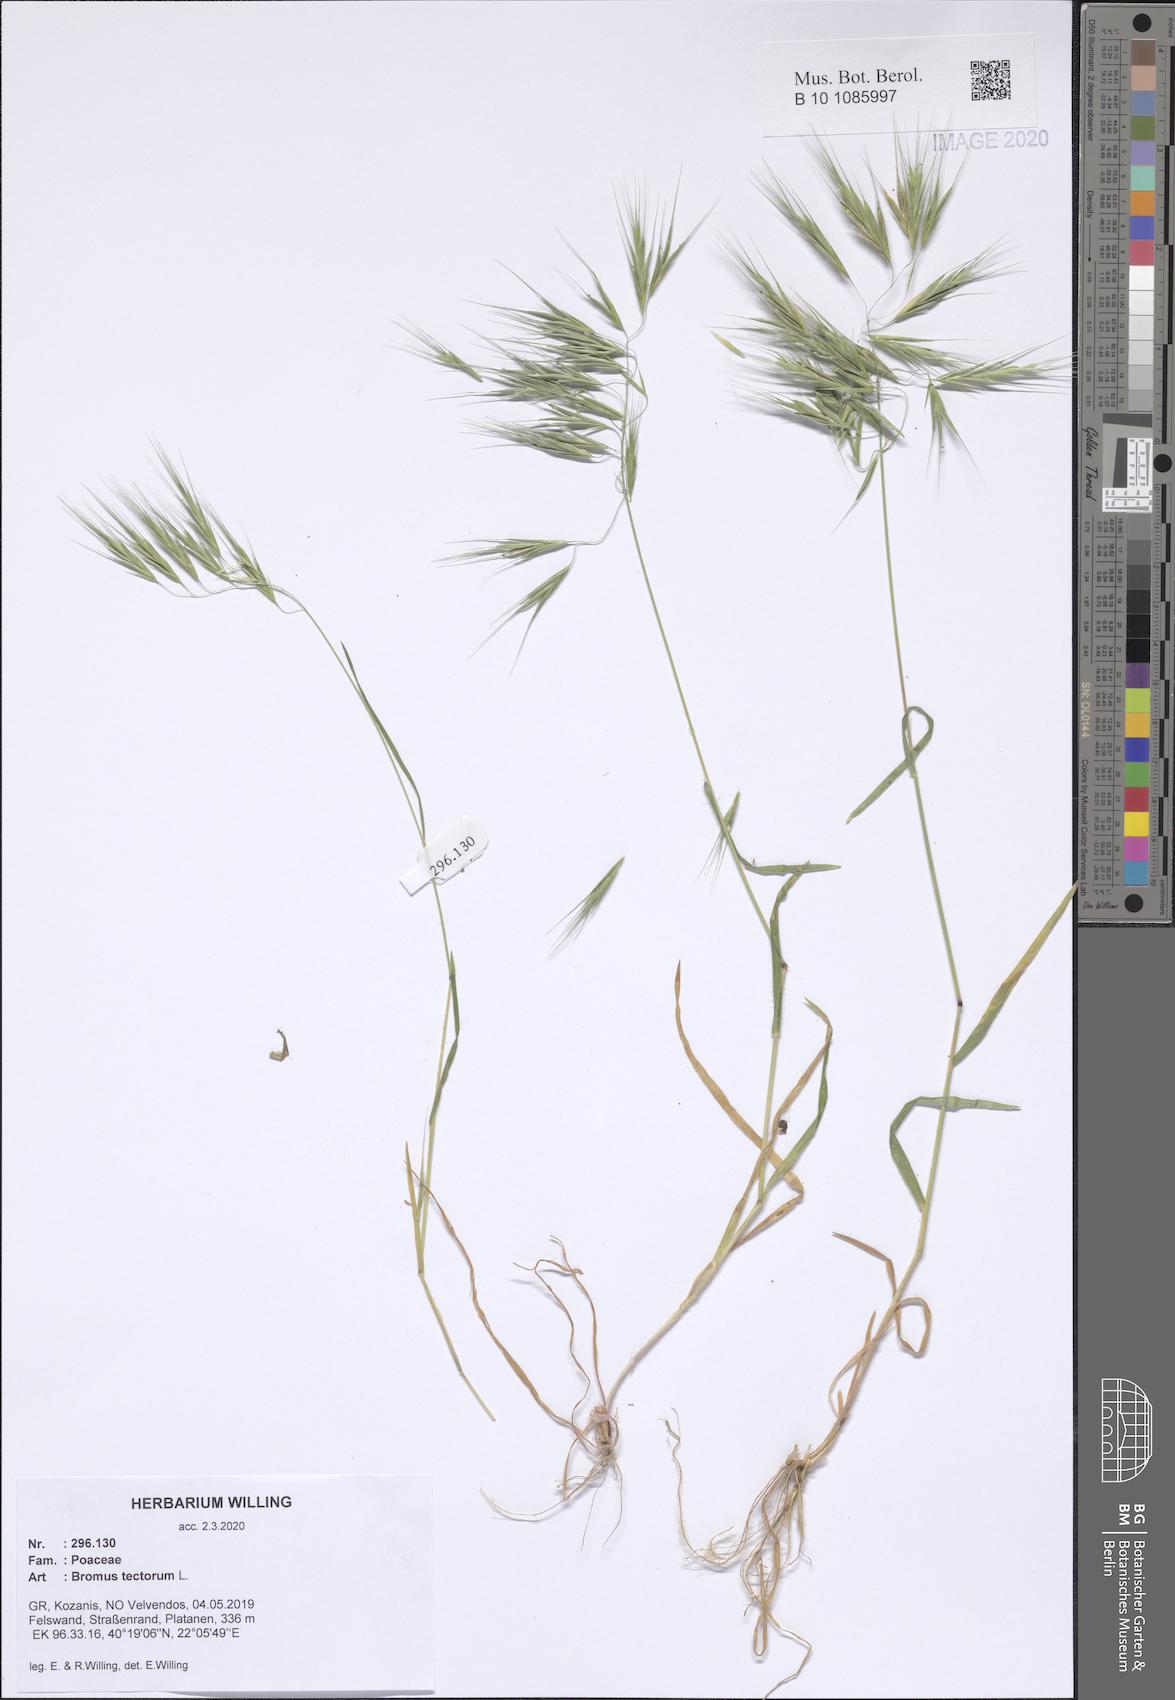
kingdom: Plantae
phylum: Tracheophyta
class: Liliopsida
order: Poales
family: Poaceae
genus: Bromus
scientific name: Bromus tectorum
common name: Cheatgrass
